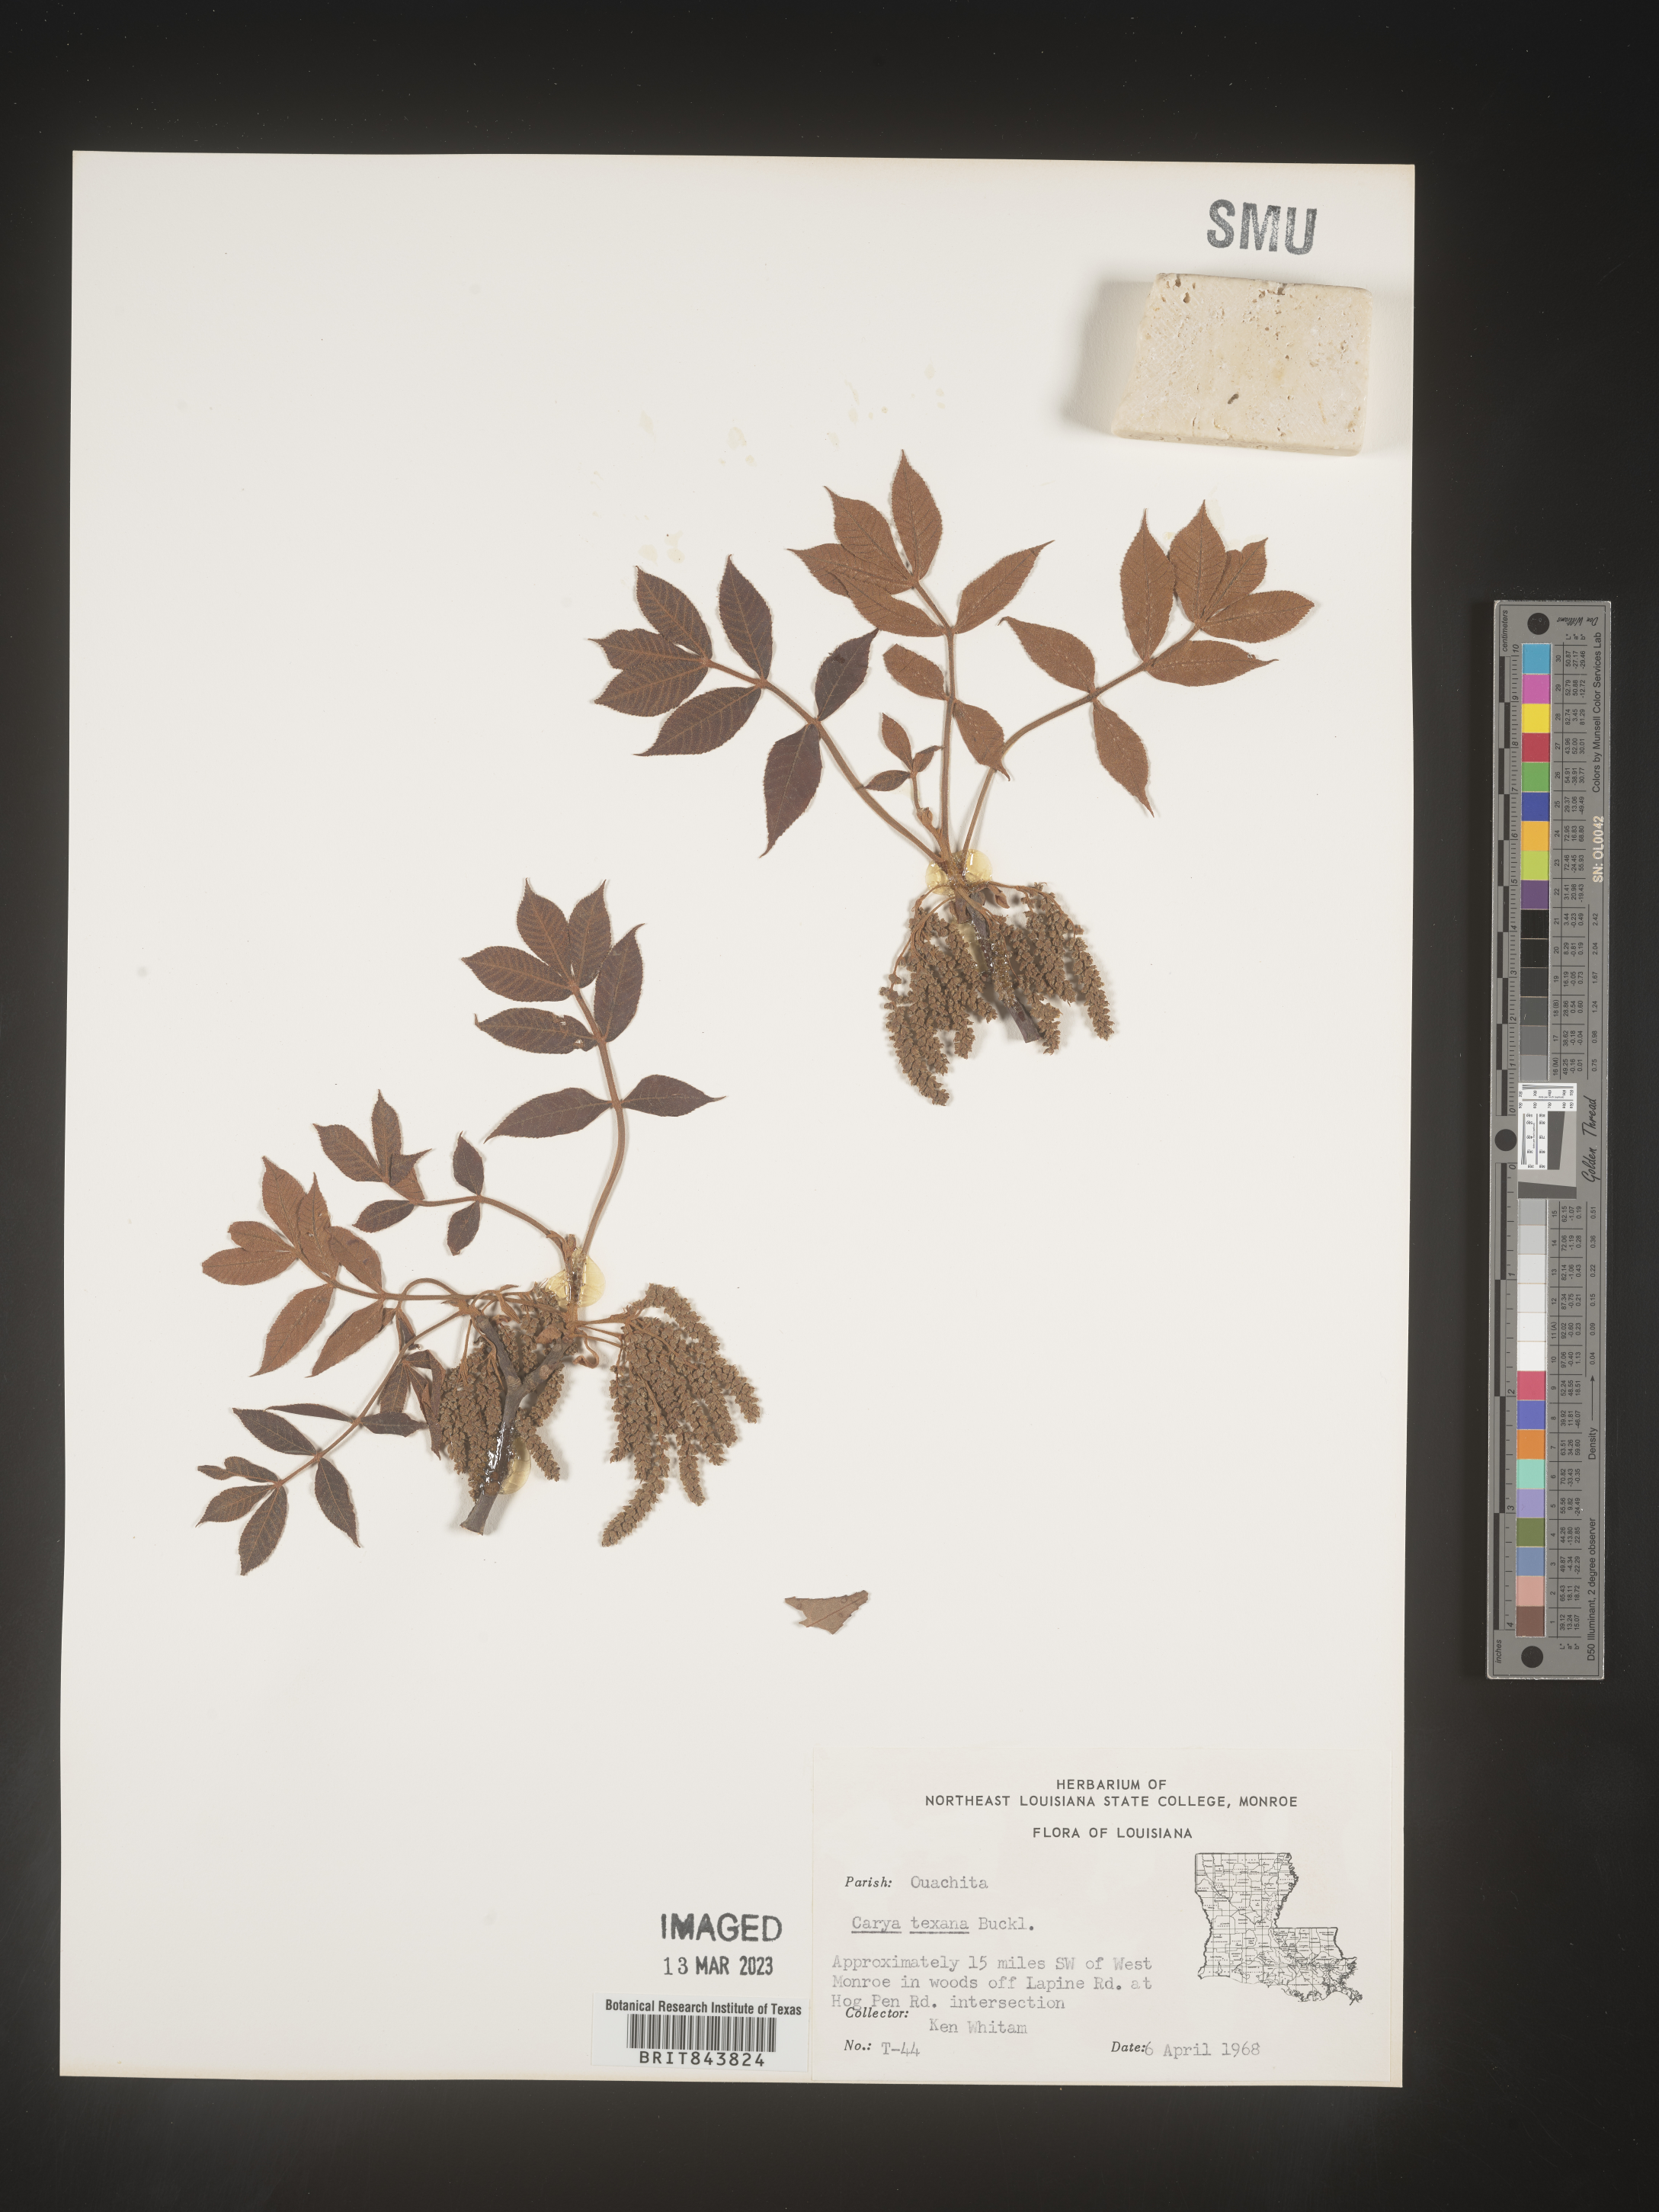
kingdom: Plantae
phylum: Tracheophyta
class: Magnoliopsida
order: Fagales
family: Juglandaceae
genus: Carya
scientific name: Carya texana
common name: Black hickory
